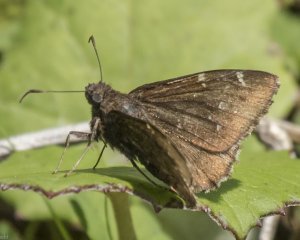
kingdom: Animalia
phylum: Arthropoda
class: Insecta
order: Lepidoptera
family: Hesperiidae
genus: Autochton
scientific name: Autochton
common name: Northern Cloudywing
